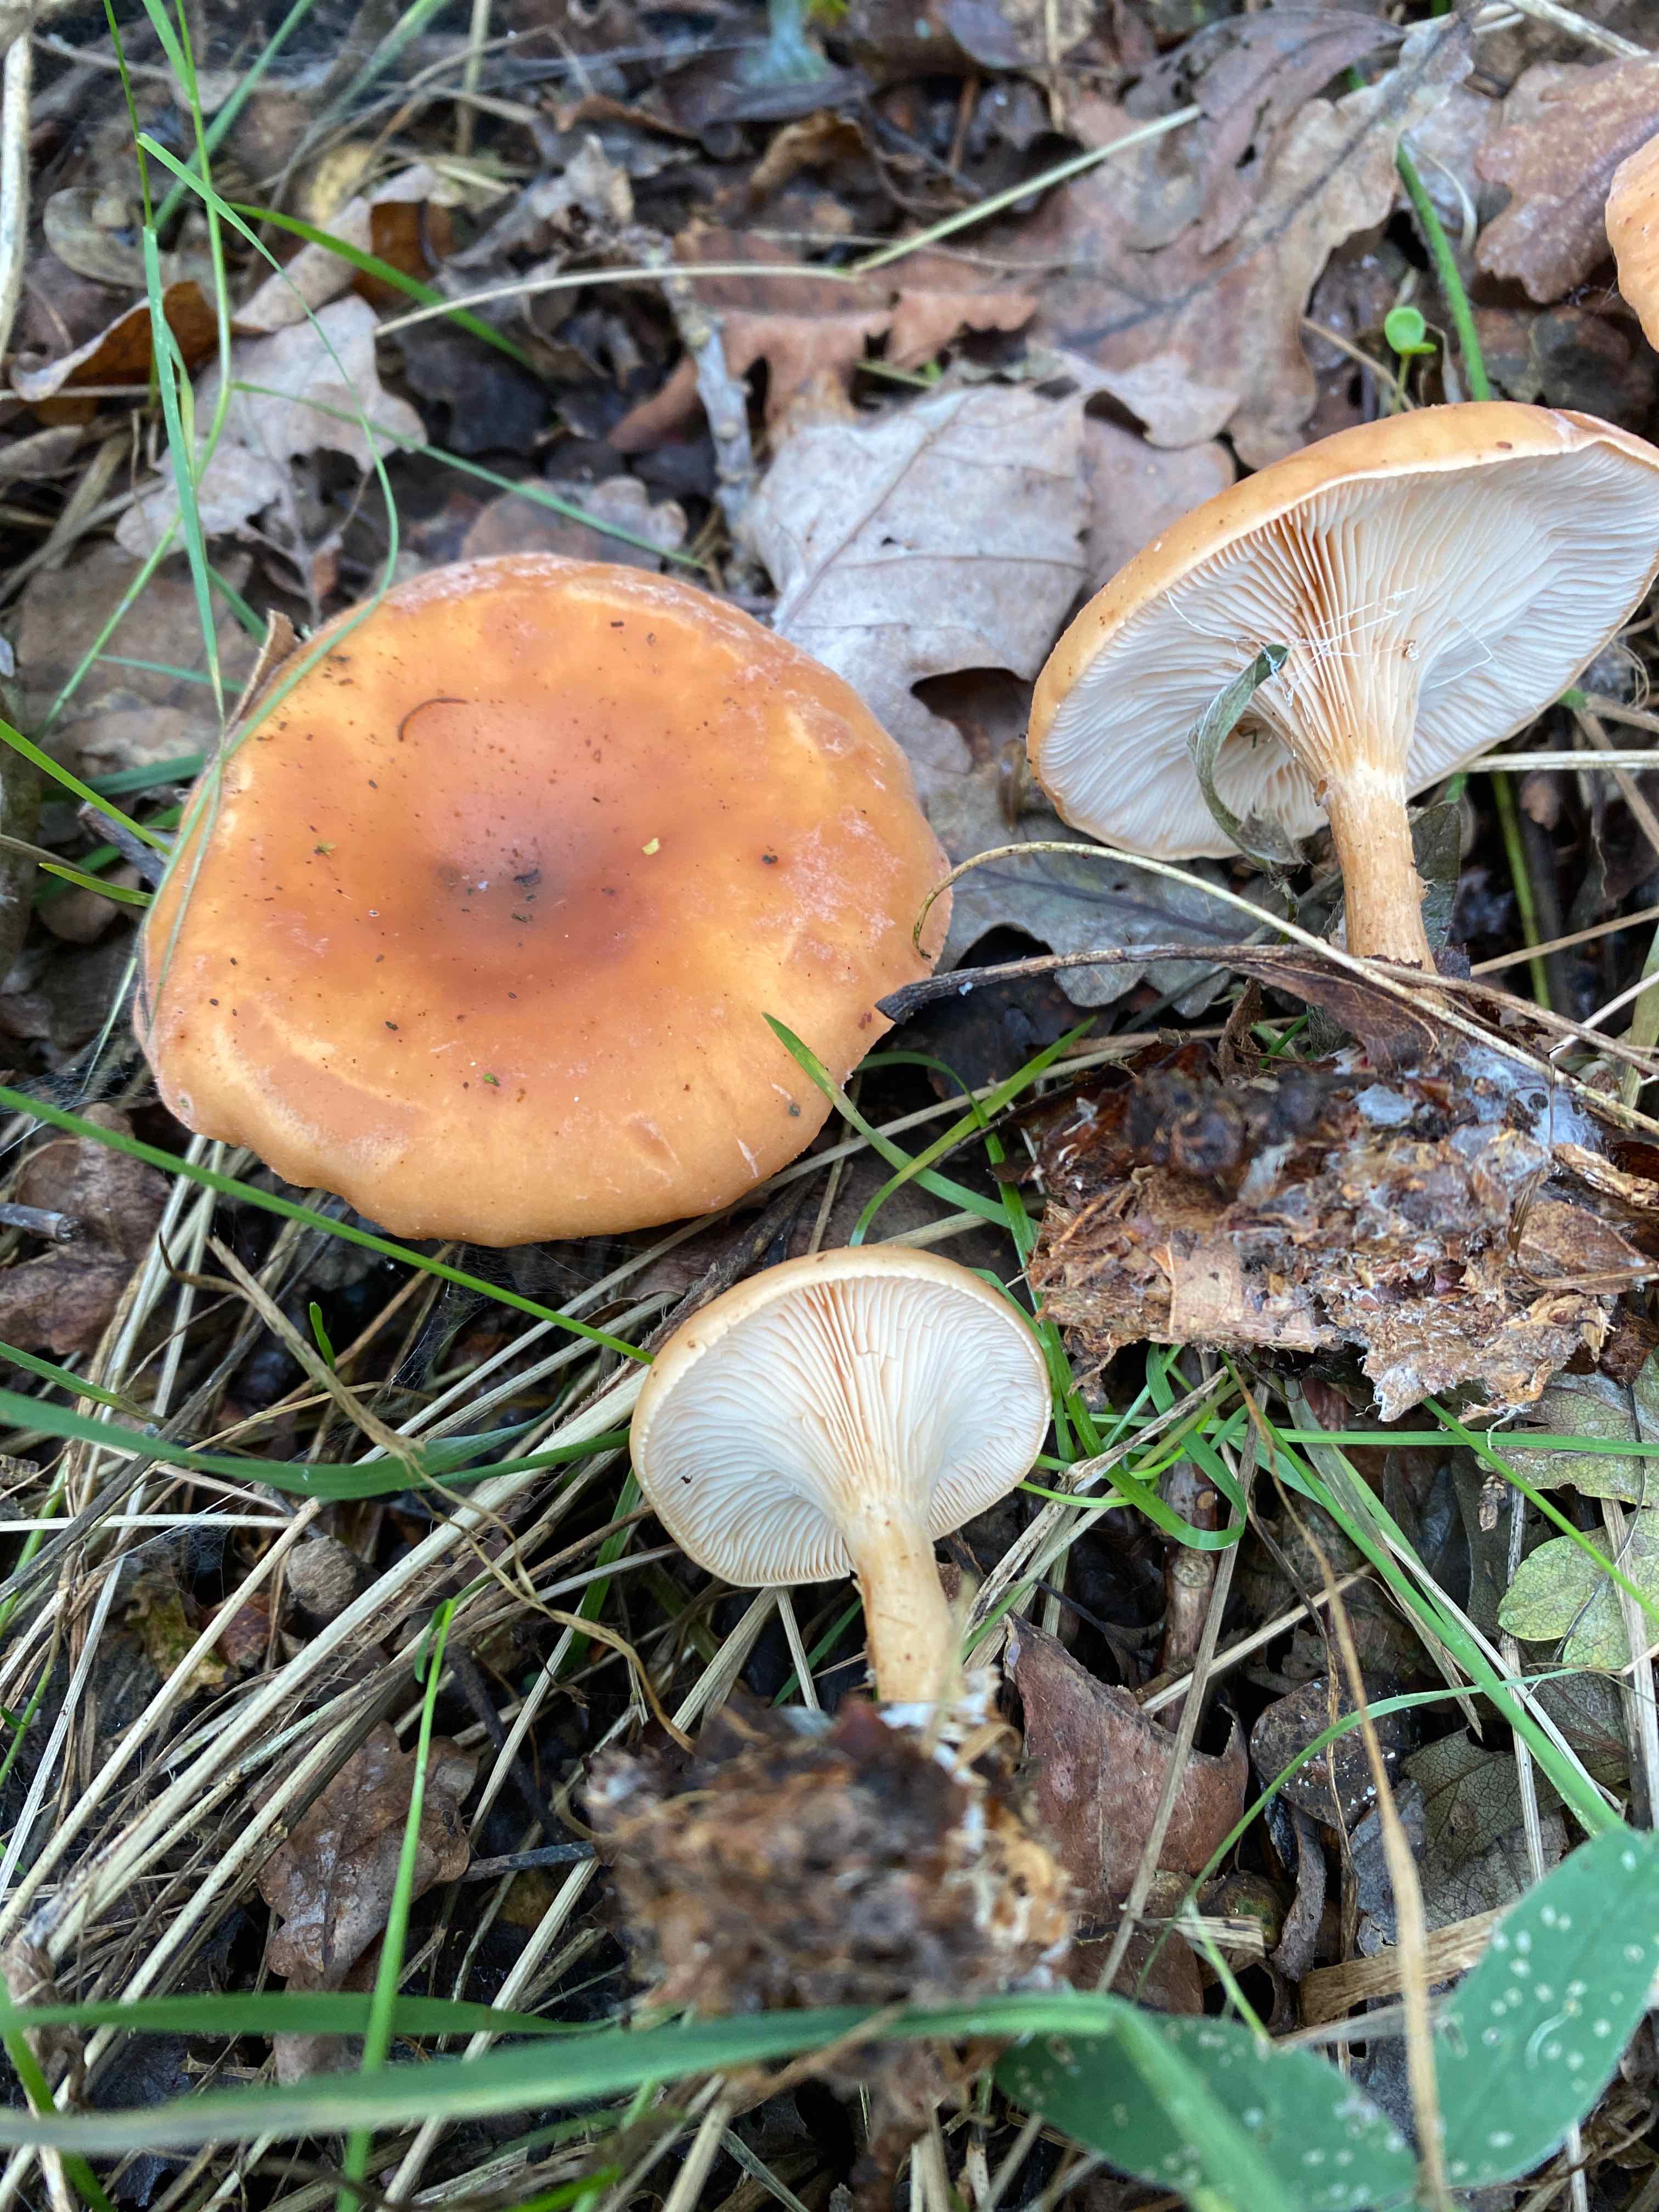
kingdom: Fungi
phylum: Basidiomycota
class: Agaricomycetes
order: Agaricales
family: Tricholomataceae
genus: Paralepista
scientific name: Paralepista flaccida
